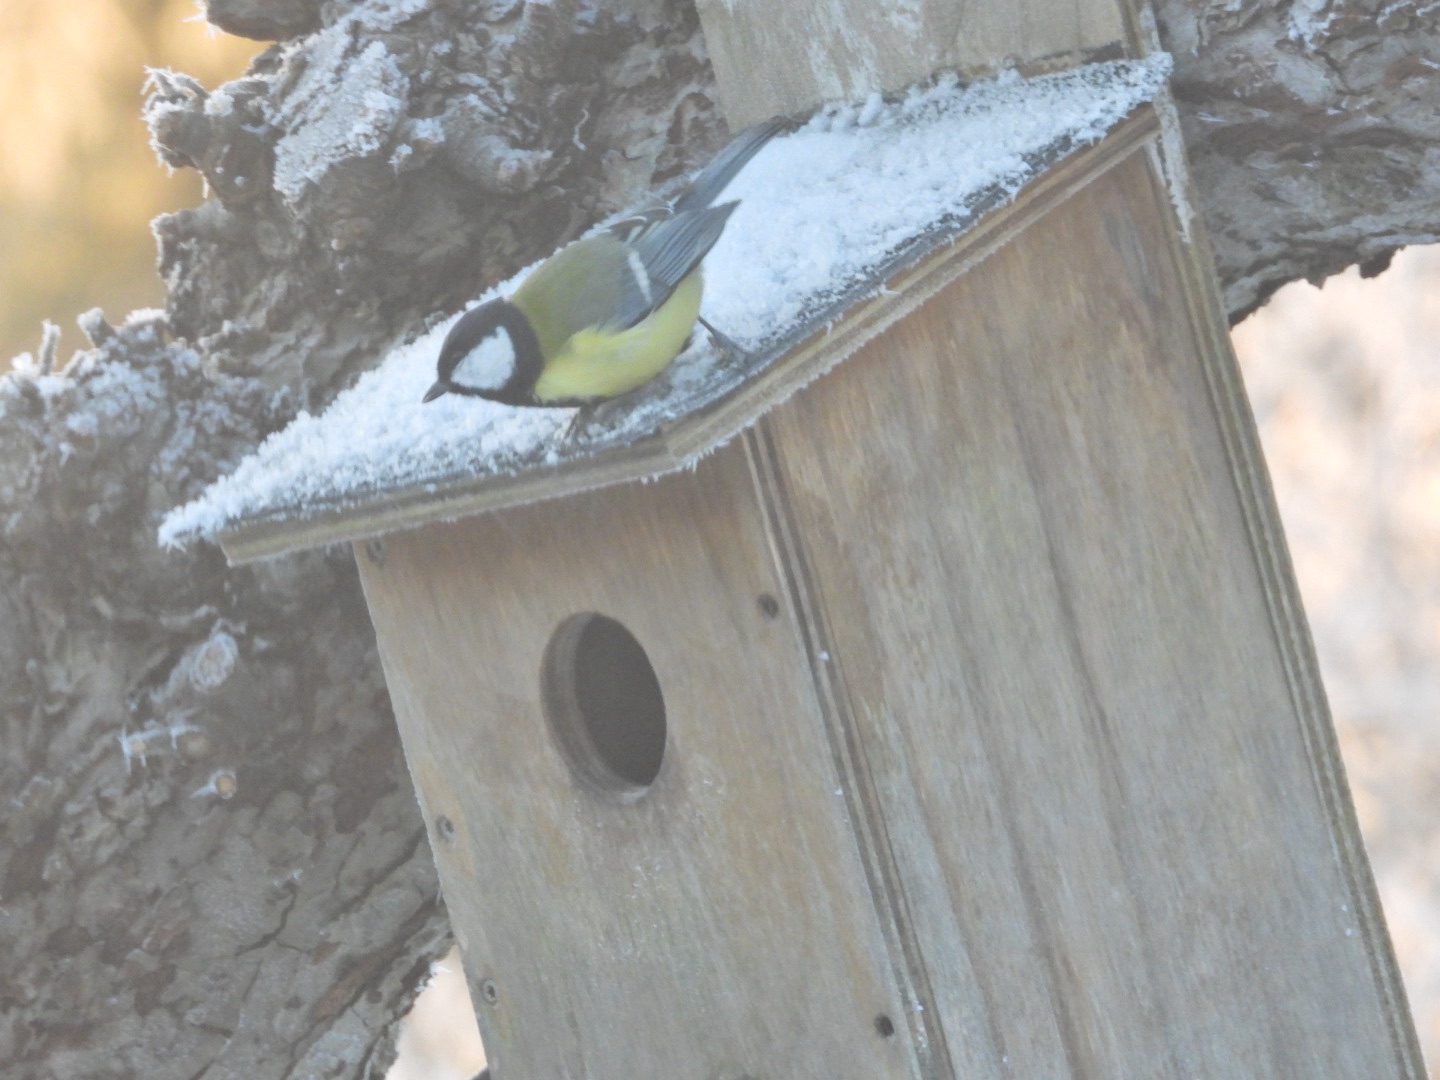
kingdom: Animalia
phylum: Chordata
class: Aves
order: Passeriformes
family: Paridae
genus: Parus
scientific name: Parus major
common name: Musvit
